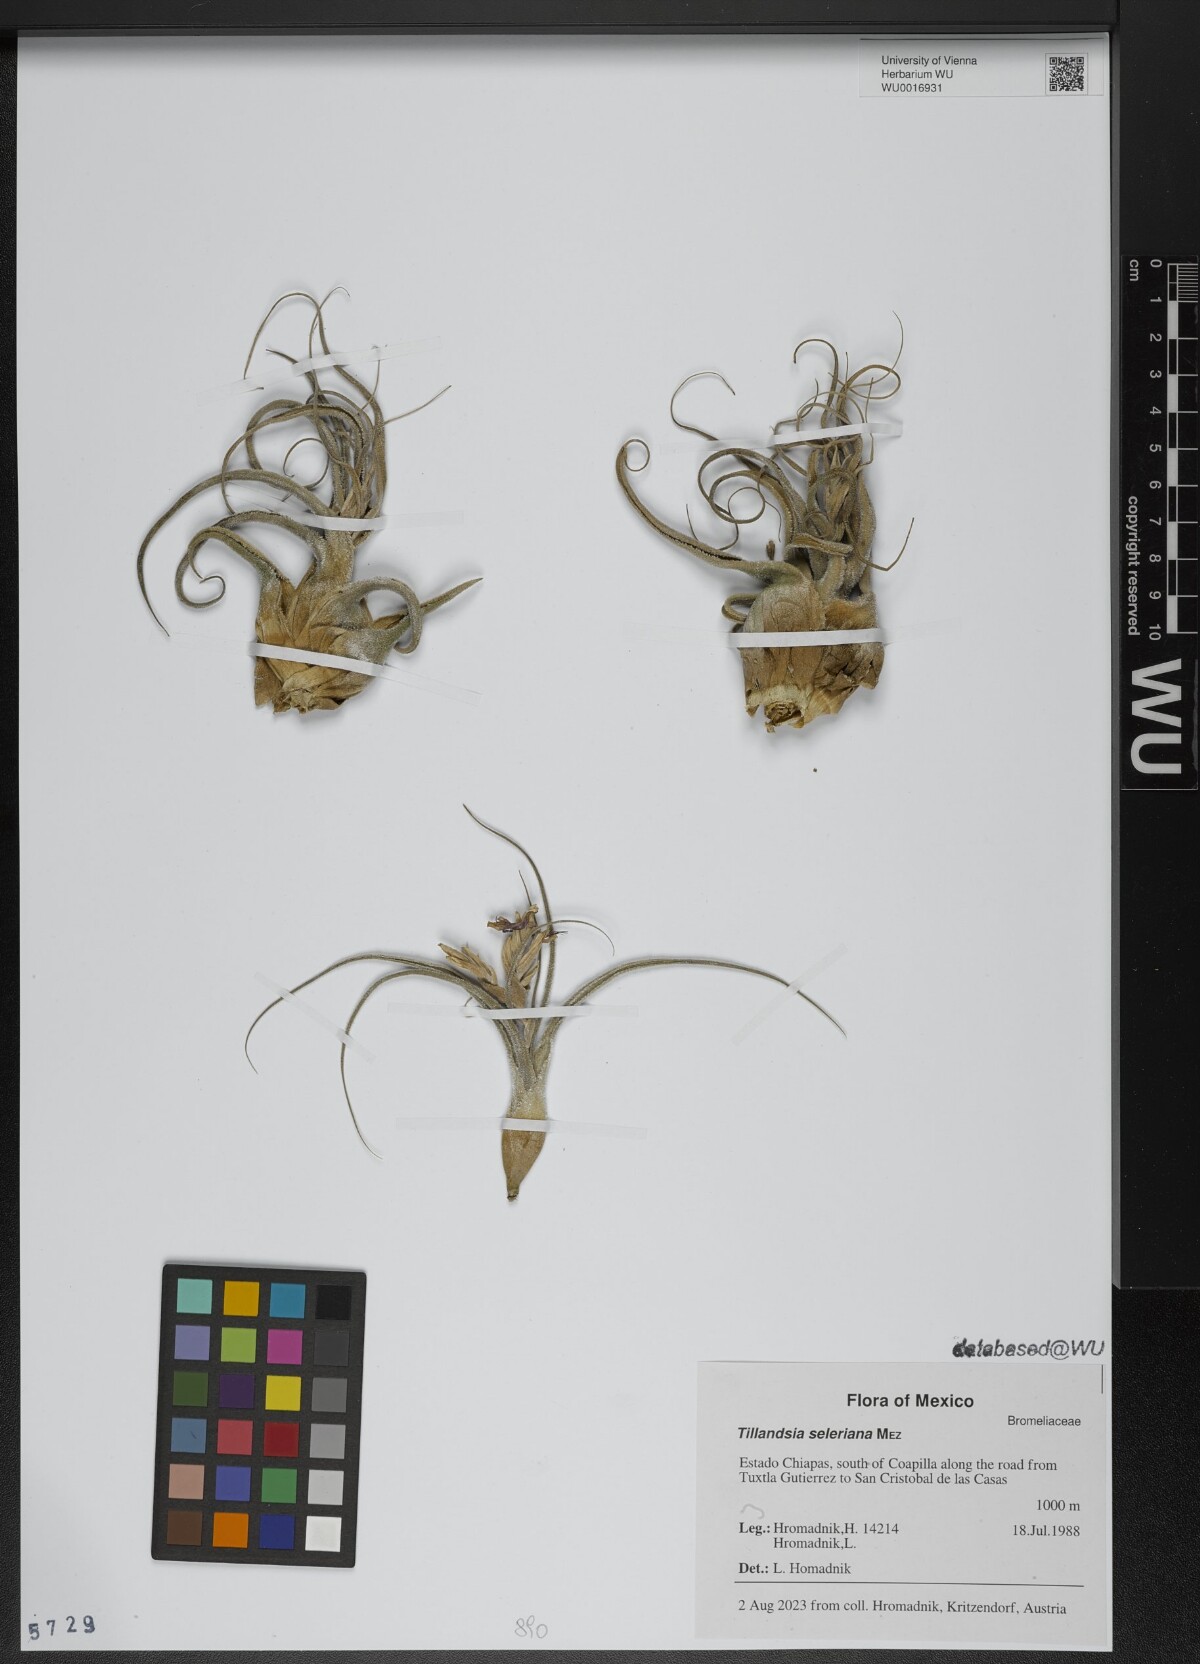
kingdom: Plantae
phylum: Tracheophyta
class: Liliopsida
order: Poales
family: Bromeliaceae
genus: Tillandsia
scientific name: Tillandsia seleriana
